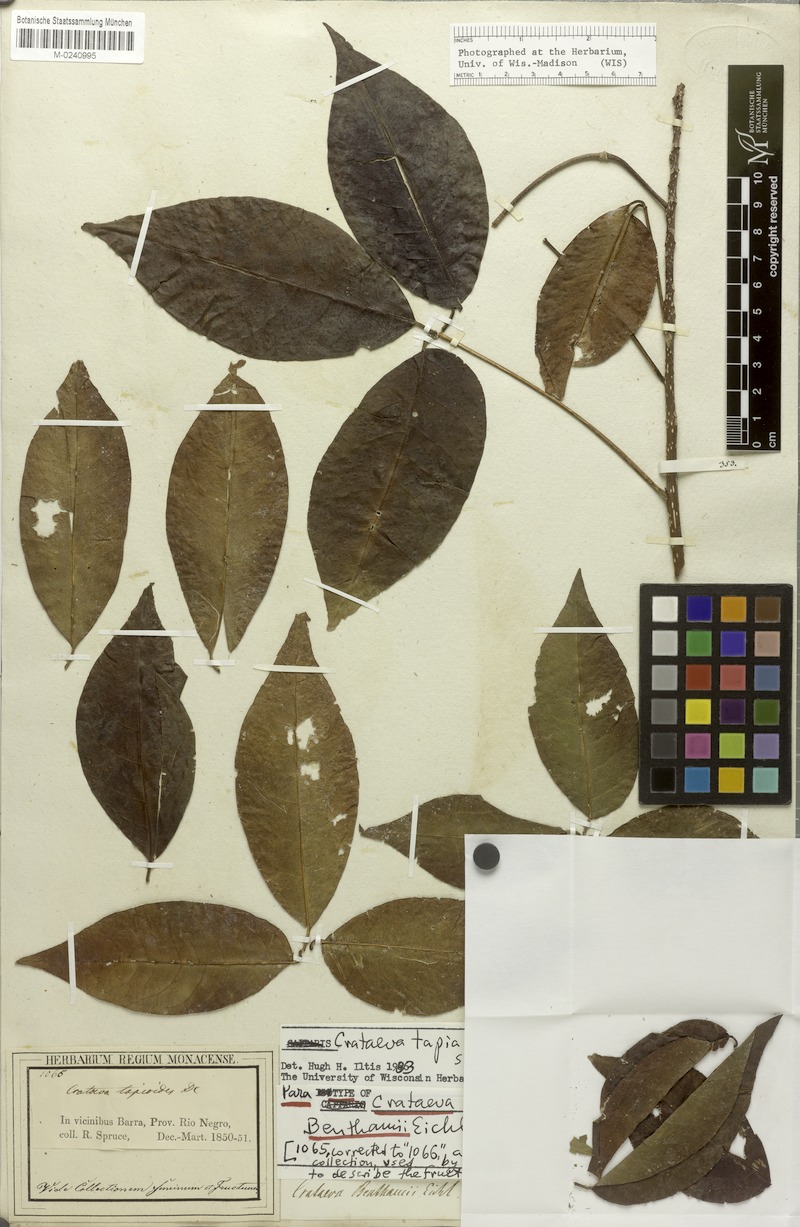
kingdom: Plantae
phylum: Tracheophyta
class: Magnoliopsida
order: Brassicales
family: Capparaceae
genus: Crateva
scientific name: Crateva tapia
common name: Garlic-pear
